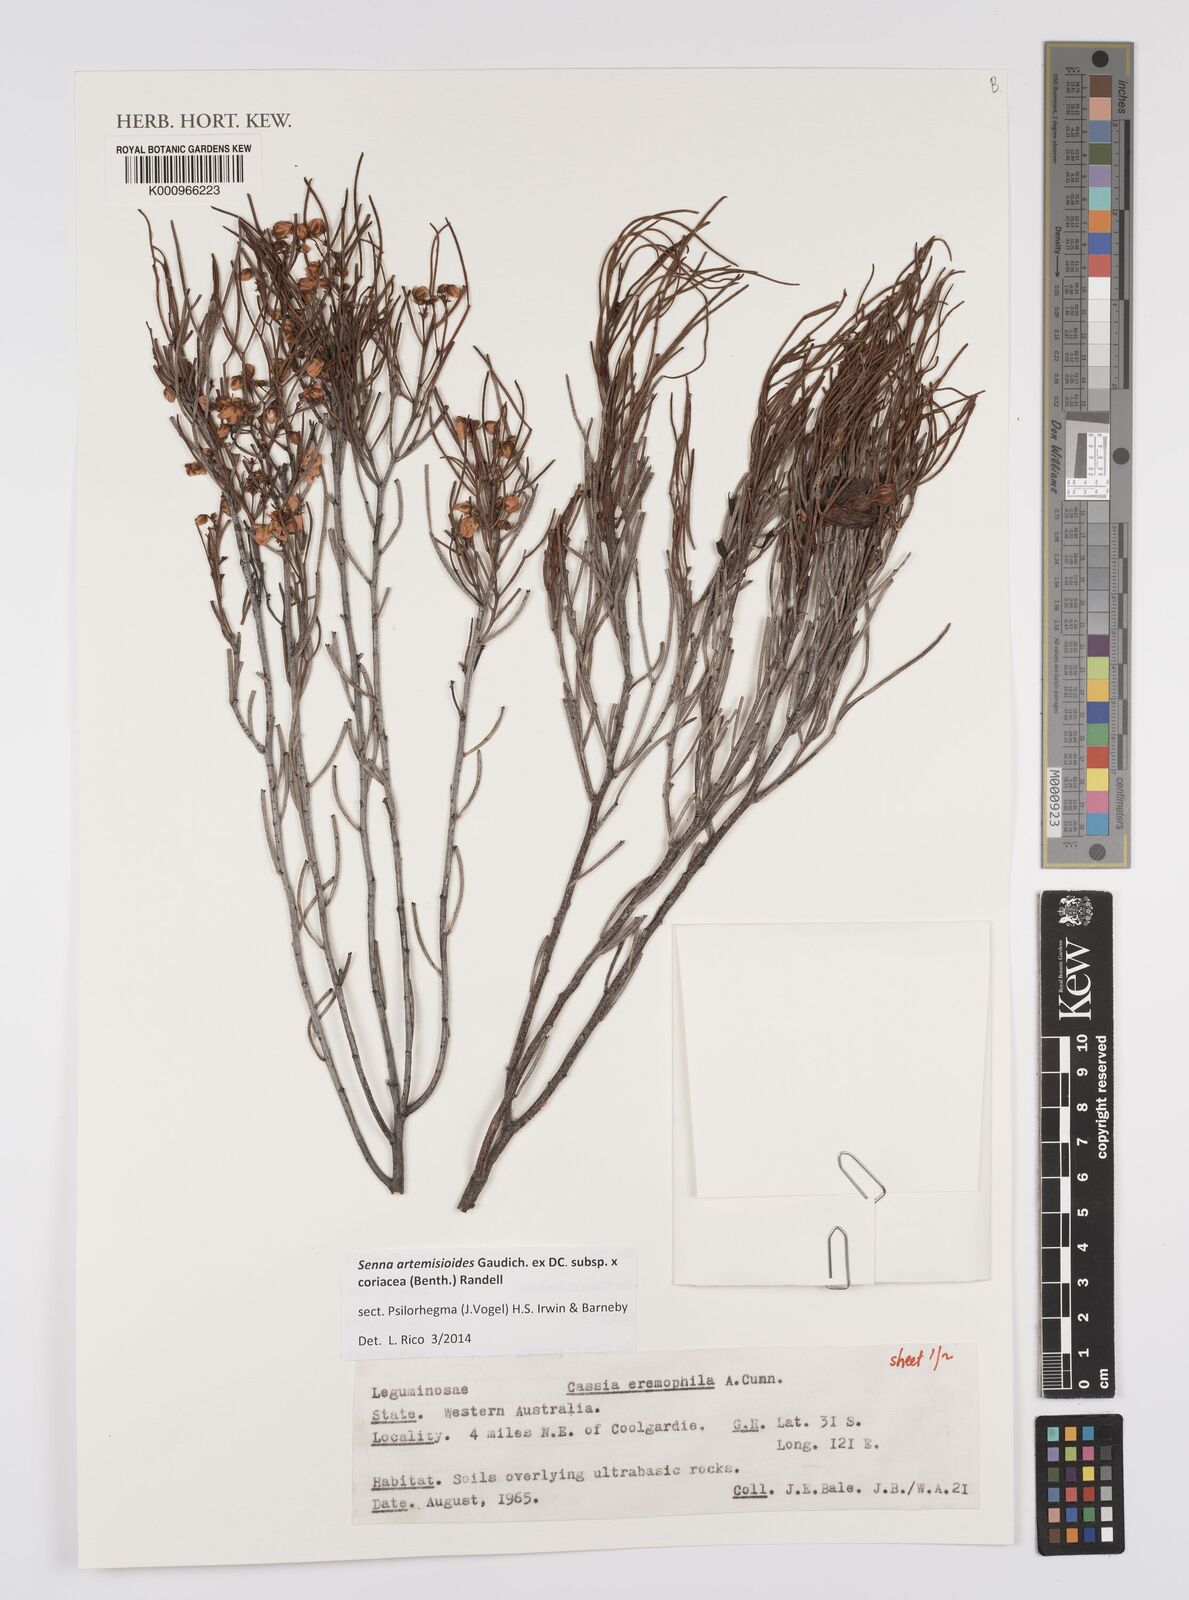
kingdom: Plantae
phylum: Tracheophyta
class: Magnoliopsida
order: Fabales
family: Fabaceae
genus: Senna
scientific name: Senna artemisioides
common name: Burnt-leaved acacia
